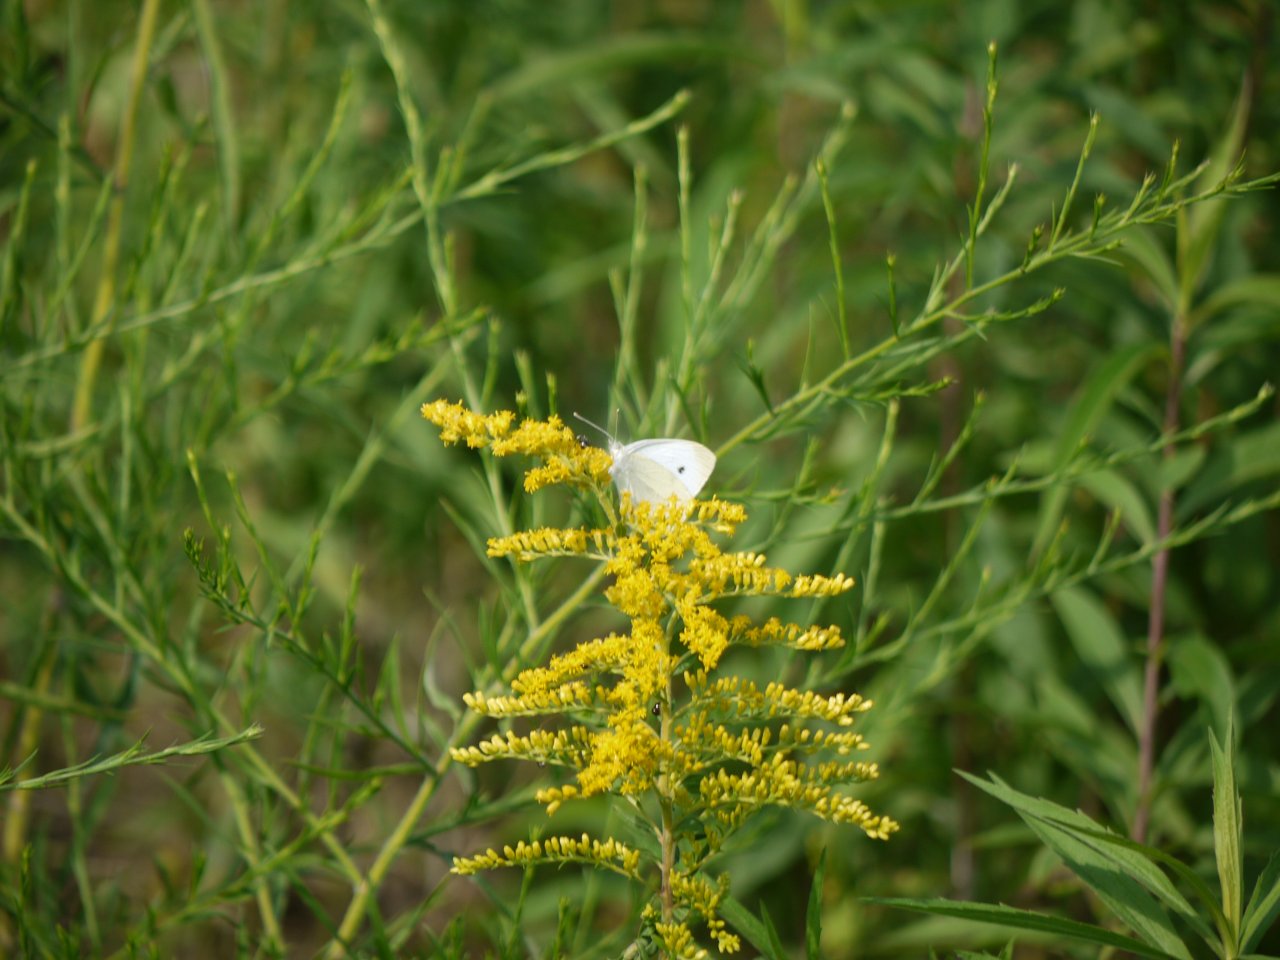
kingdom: Animalia
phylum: Arthropoda
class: Insecta
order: Lepidoptera
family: Pieridae
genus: Pieris
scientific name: Pieris rapae
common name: Cabbage White
